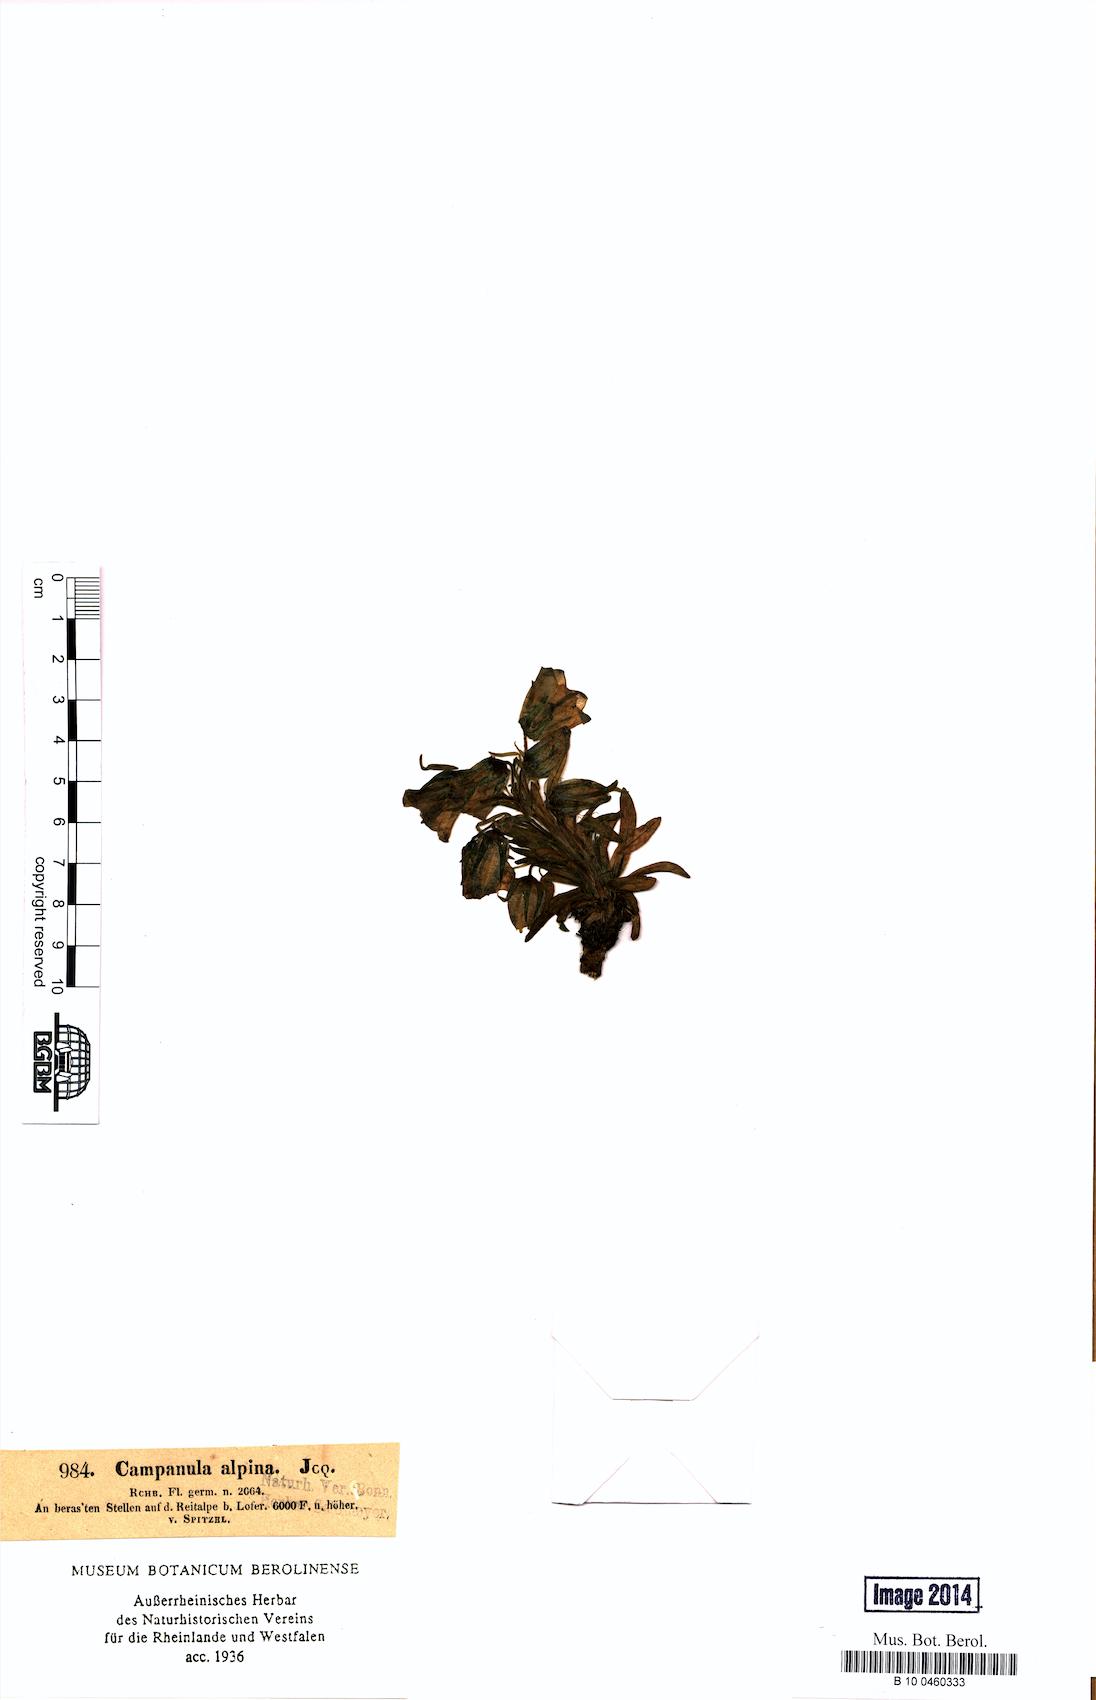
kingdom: Plantae
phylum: Tracheophyta
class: Magnoliopsida
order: Asterales
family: Campanulaceae
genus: Campanula
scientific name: Campanula alpina
